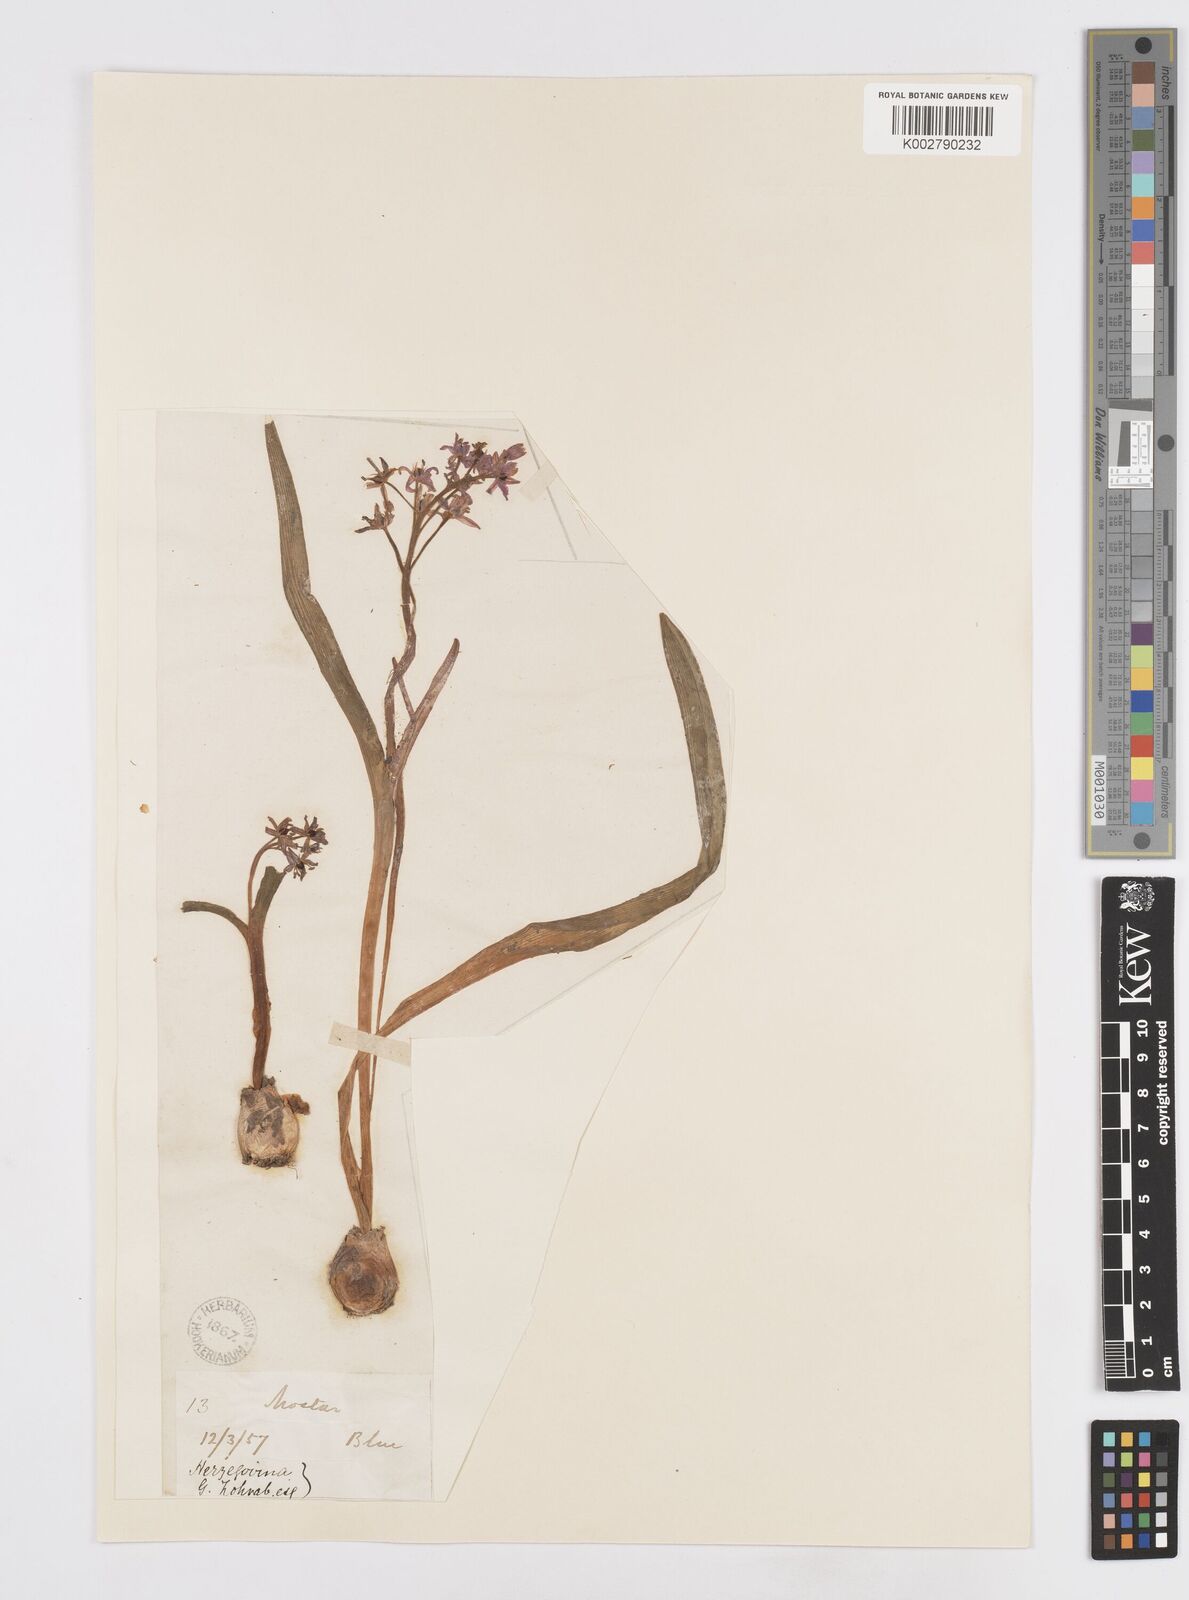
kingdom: Plantae
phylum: Tracheophyta
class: Liliopsida
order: Asparagales
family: Asparagaceae
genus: Scilla
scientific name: Scilla bifolia
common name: Alpine squill
